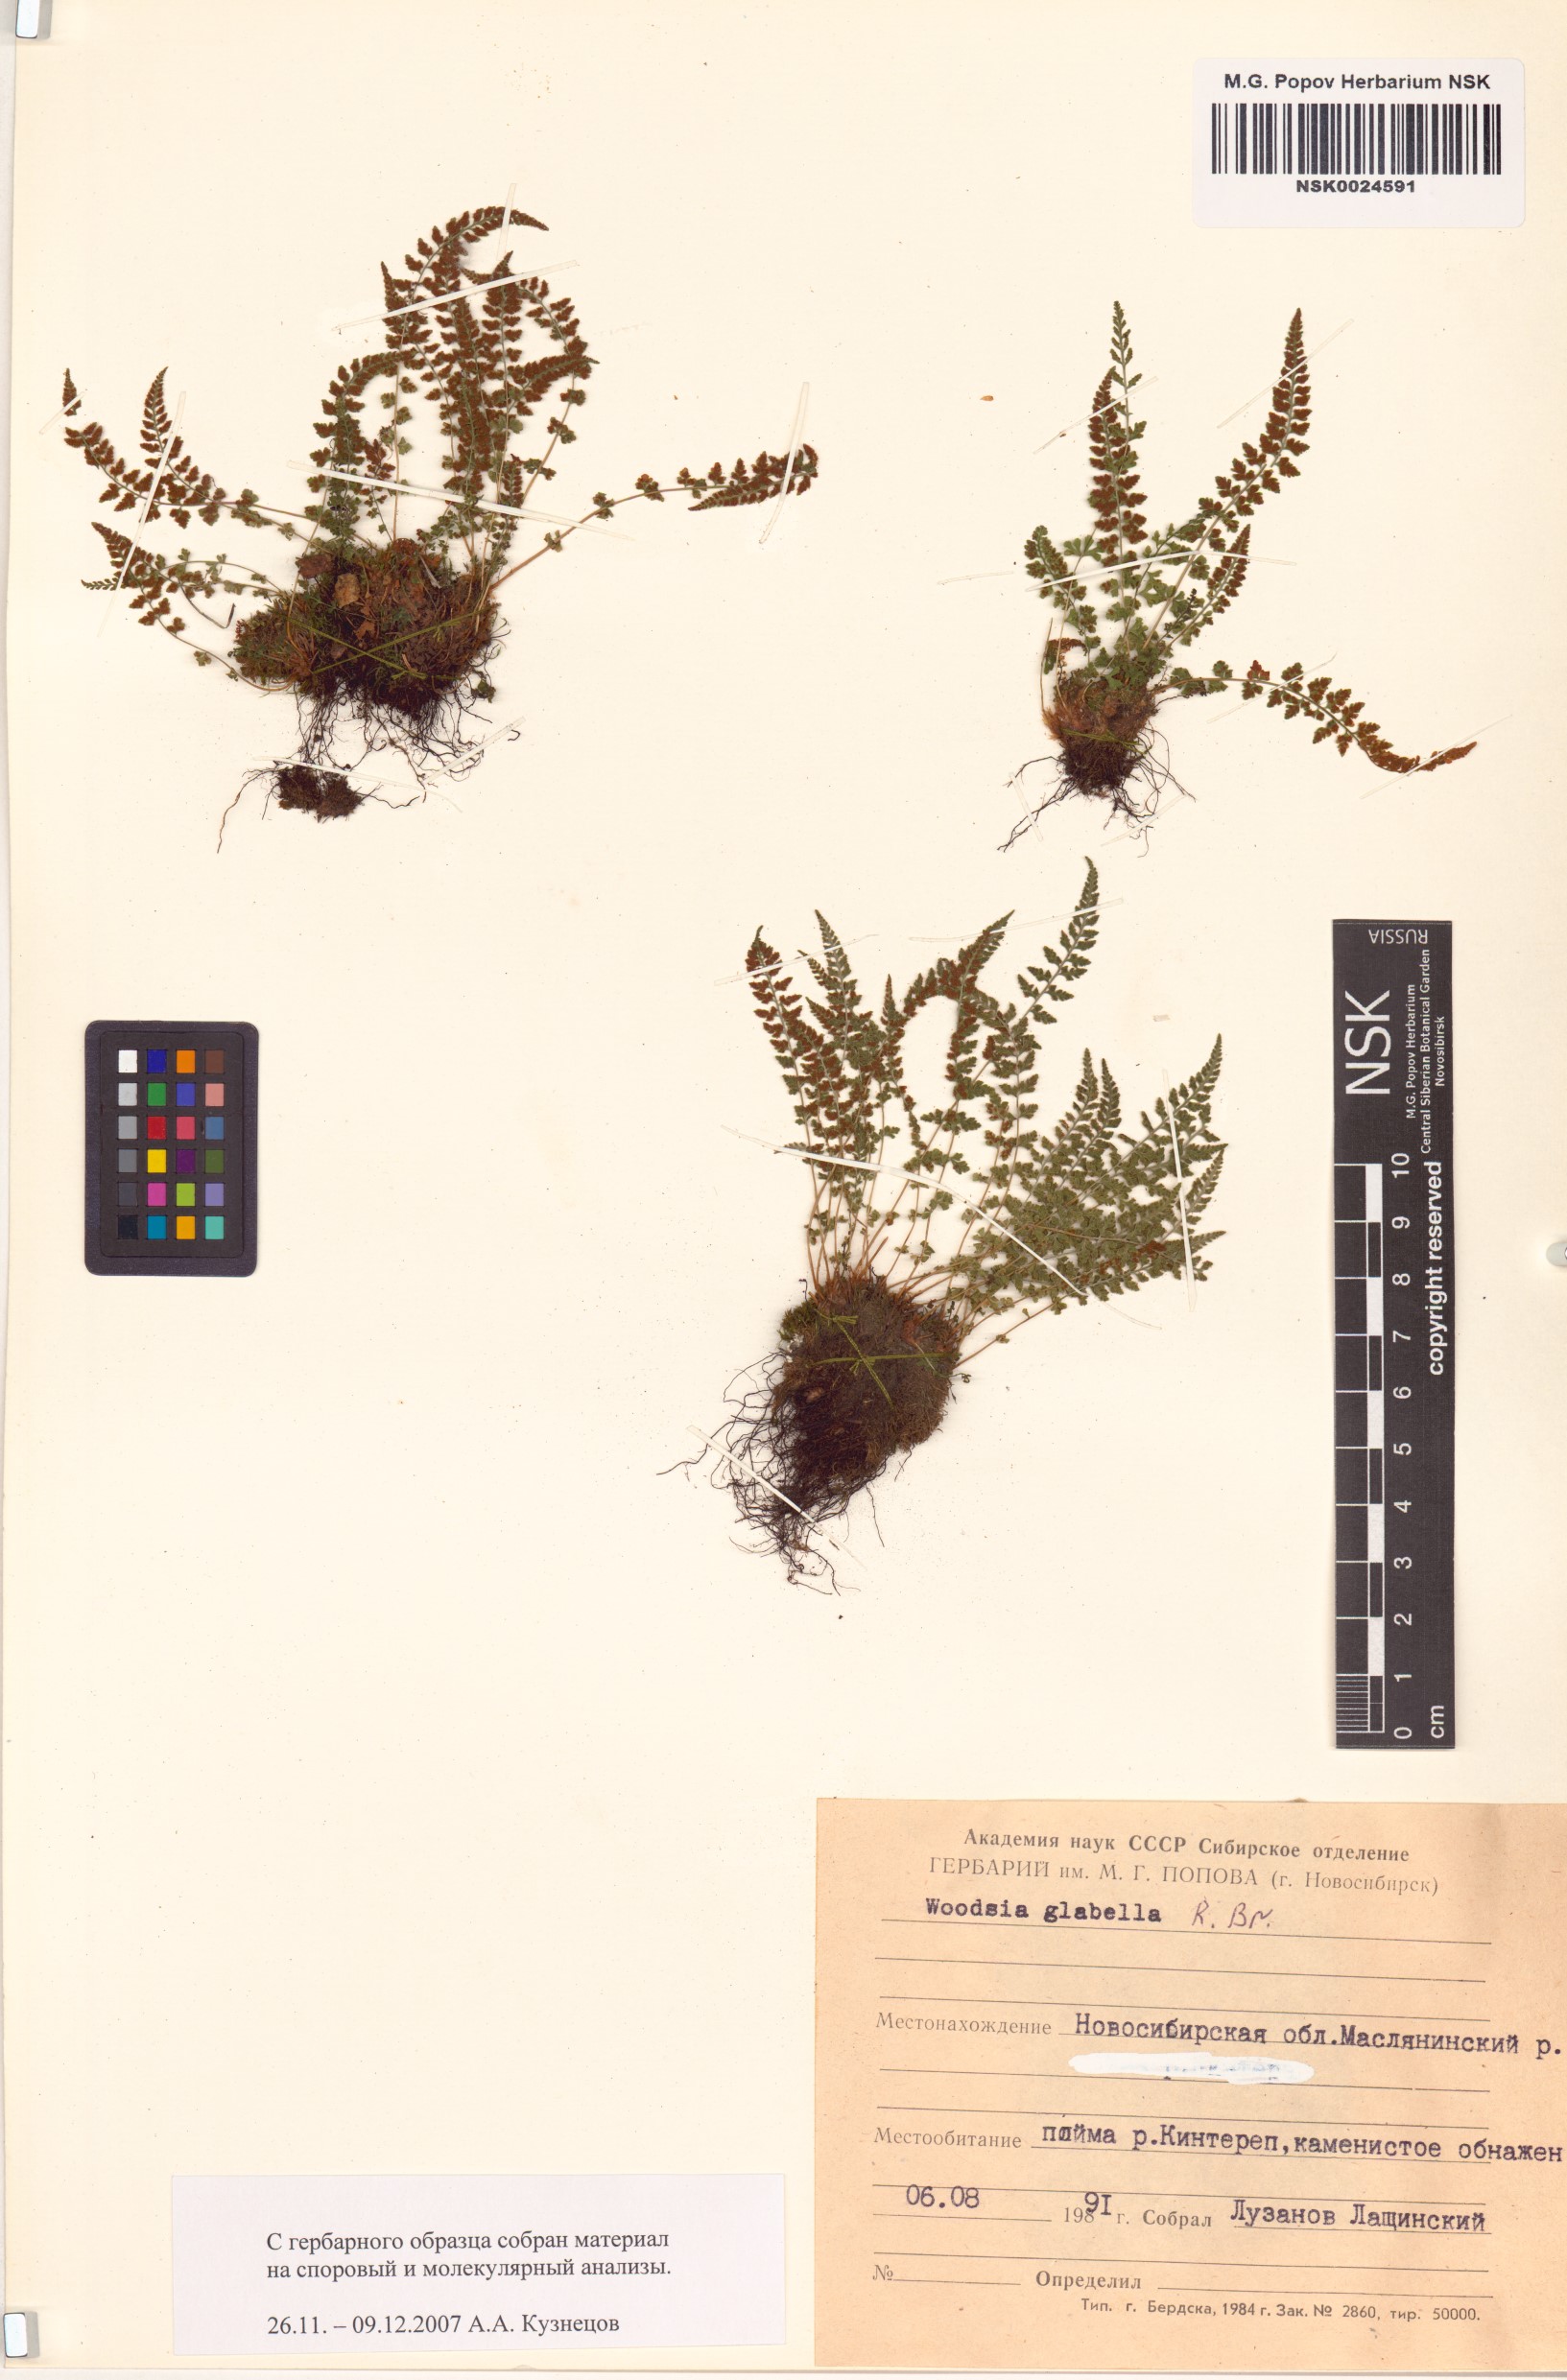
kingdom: Plantae
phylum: Tracheophyta
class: Polypodiopsida
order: Polypodiales
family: Woodsiaceae
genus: Woodsia
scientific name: Woodsia glabella
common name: Smooth woodsia
